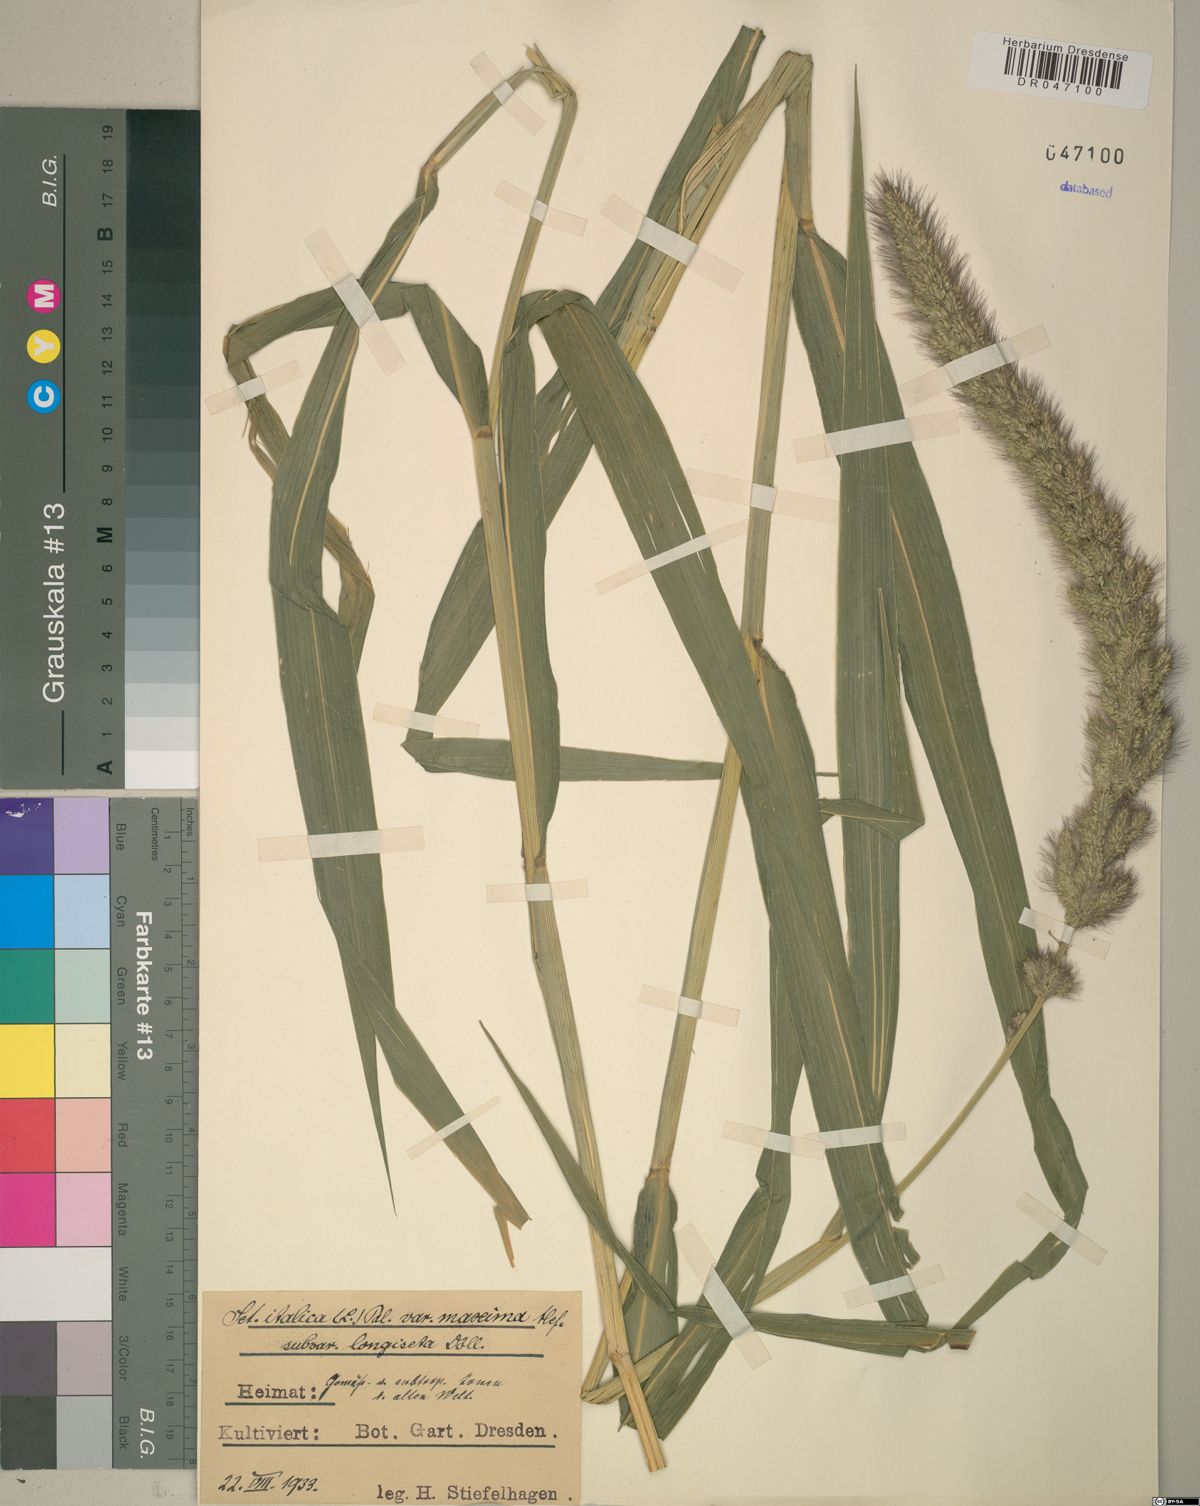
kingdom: Plantae
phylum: Tracheophyta
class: Liliopsida
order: Poales
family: Poaceae
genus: Setaria
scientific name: Setaria italica
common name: Foxtail bristle-grass
